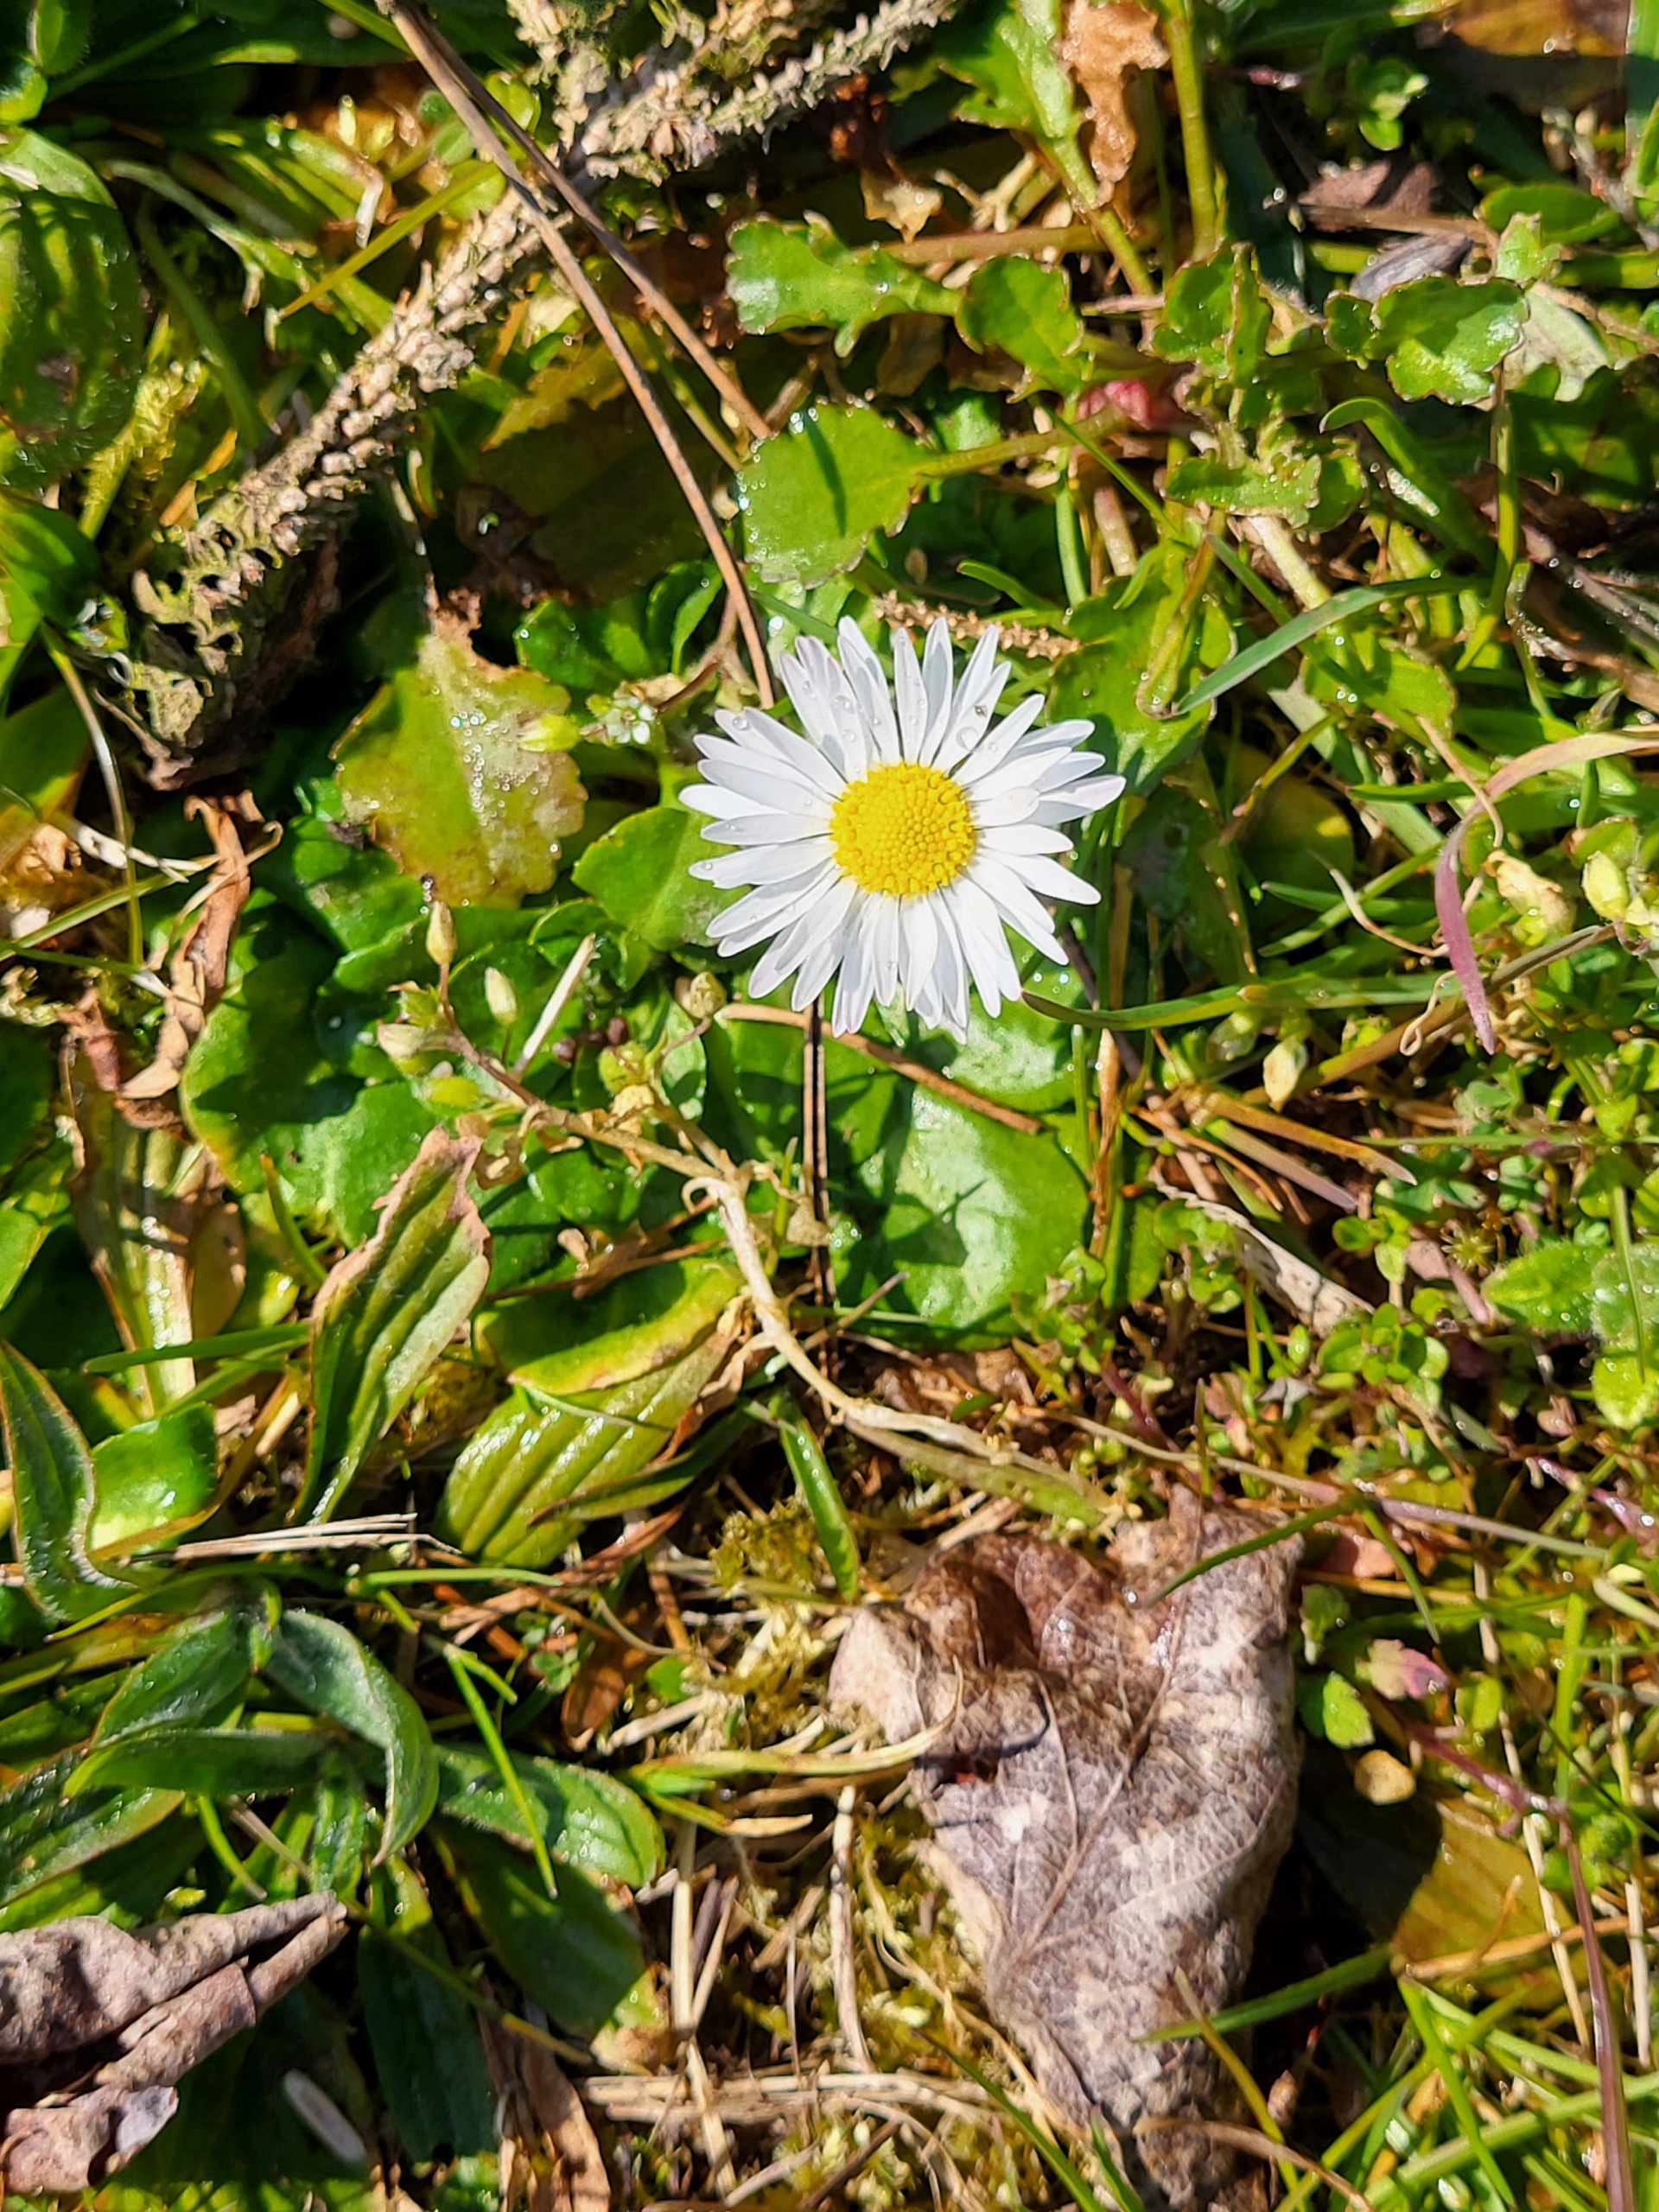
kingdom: Plantae
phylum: Tracheophyta
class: Magnoliopsida
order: Asterales
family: Asteraceae
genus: Bellis
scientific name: Bellis perennis
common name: Tusindfryd
